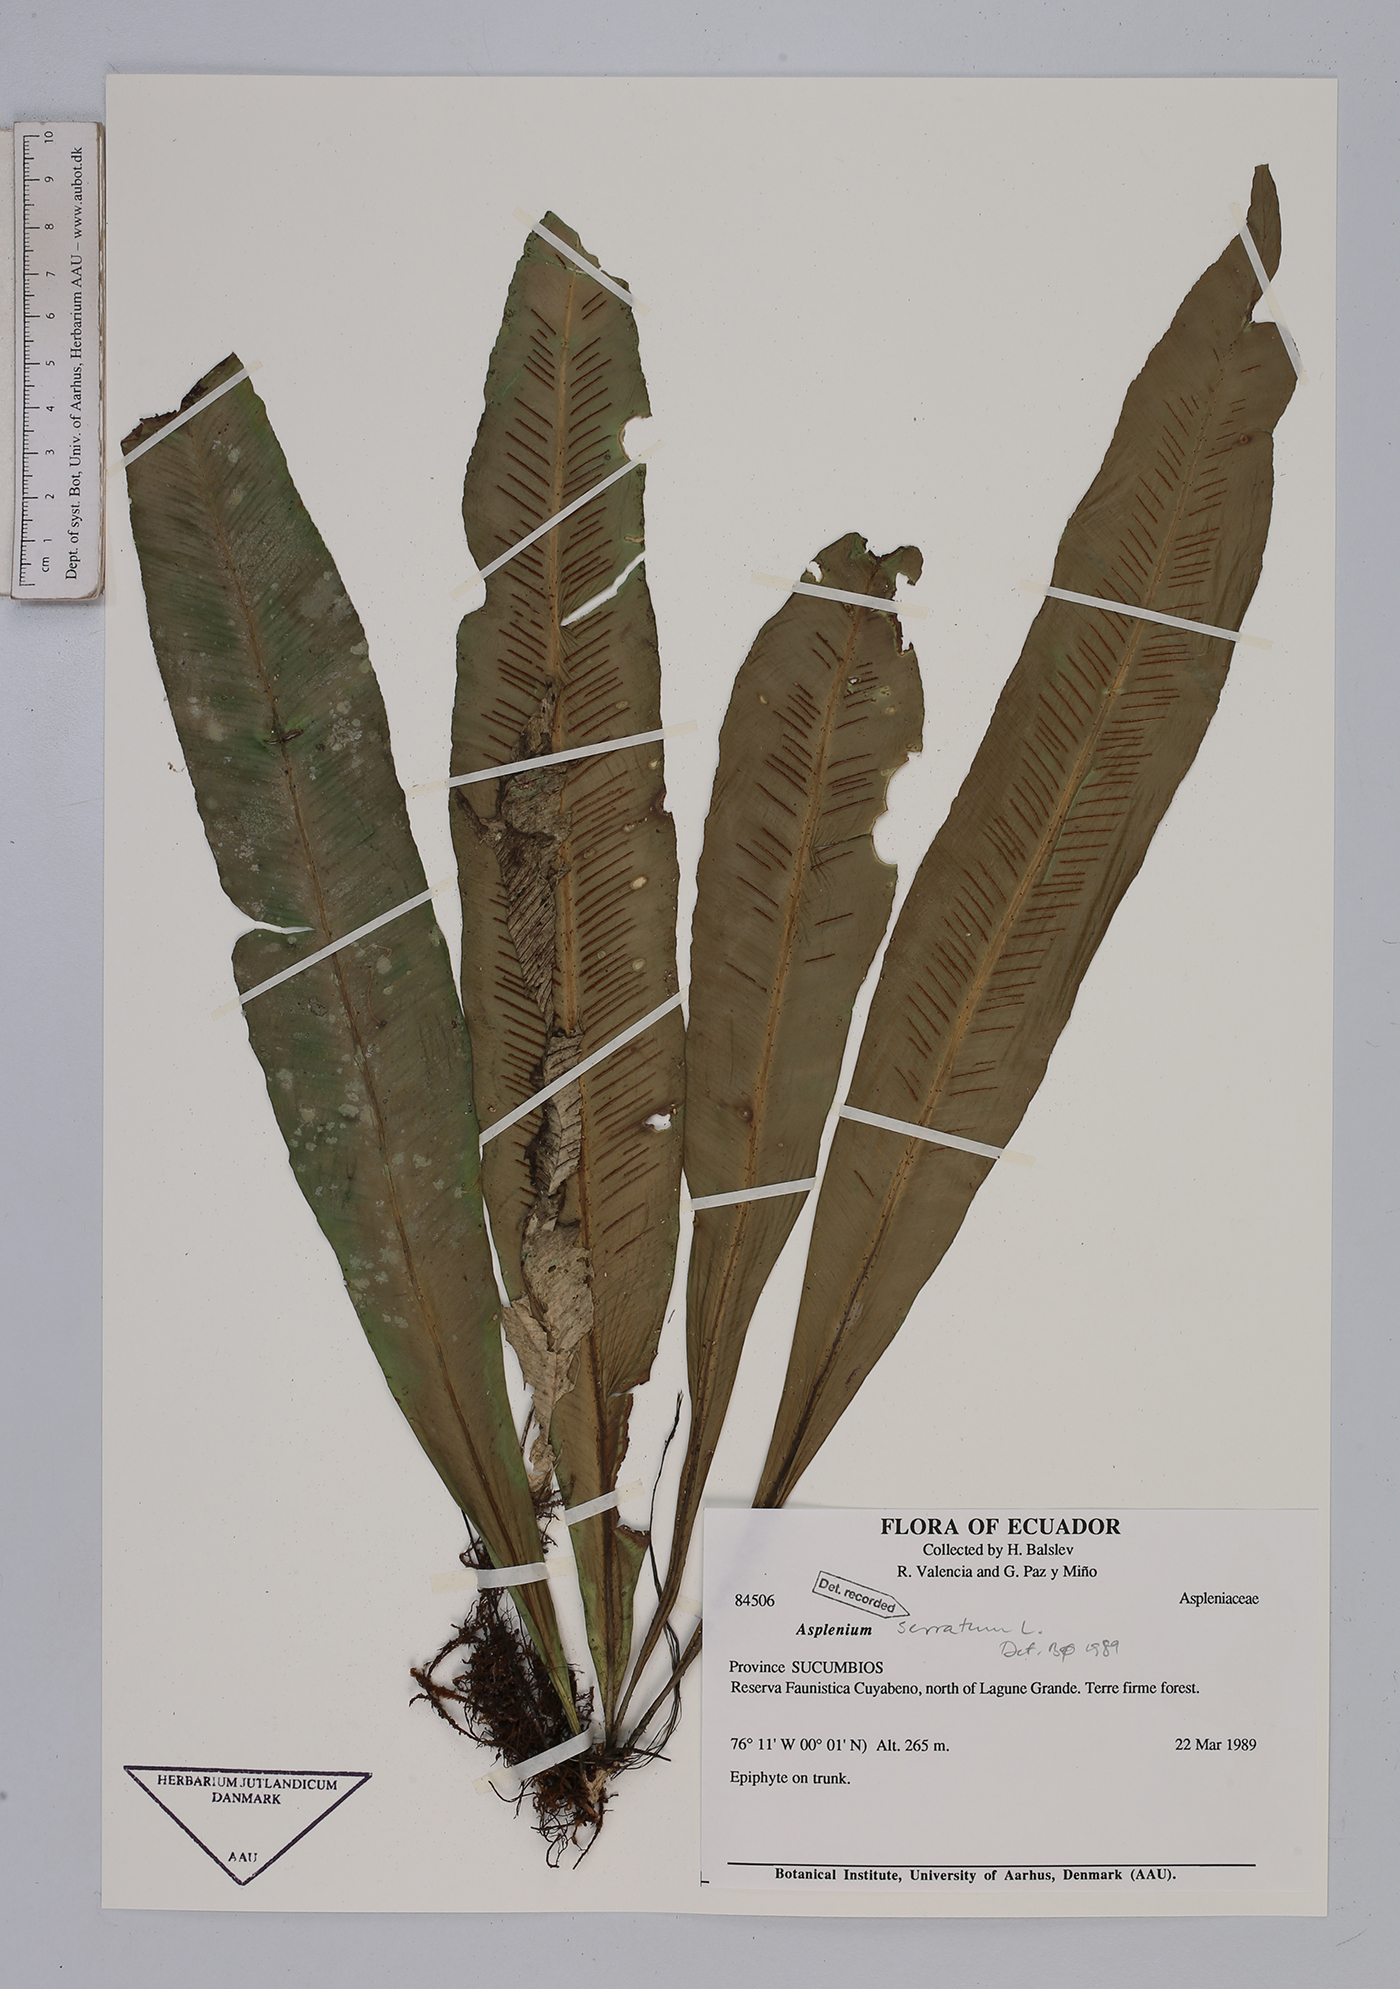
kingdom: Plantae
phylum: Tracheophyta
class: Polypodiopsida
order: Polypodiales
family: Aspleniaceae
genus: Asplenium
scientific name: Asplenium serratum
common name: Wild birdnest fern
